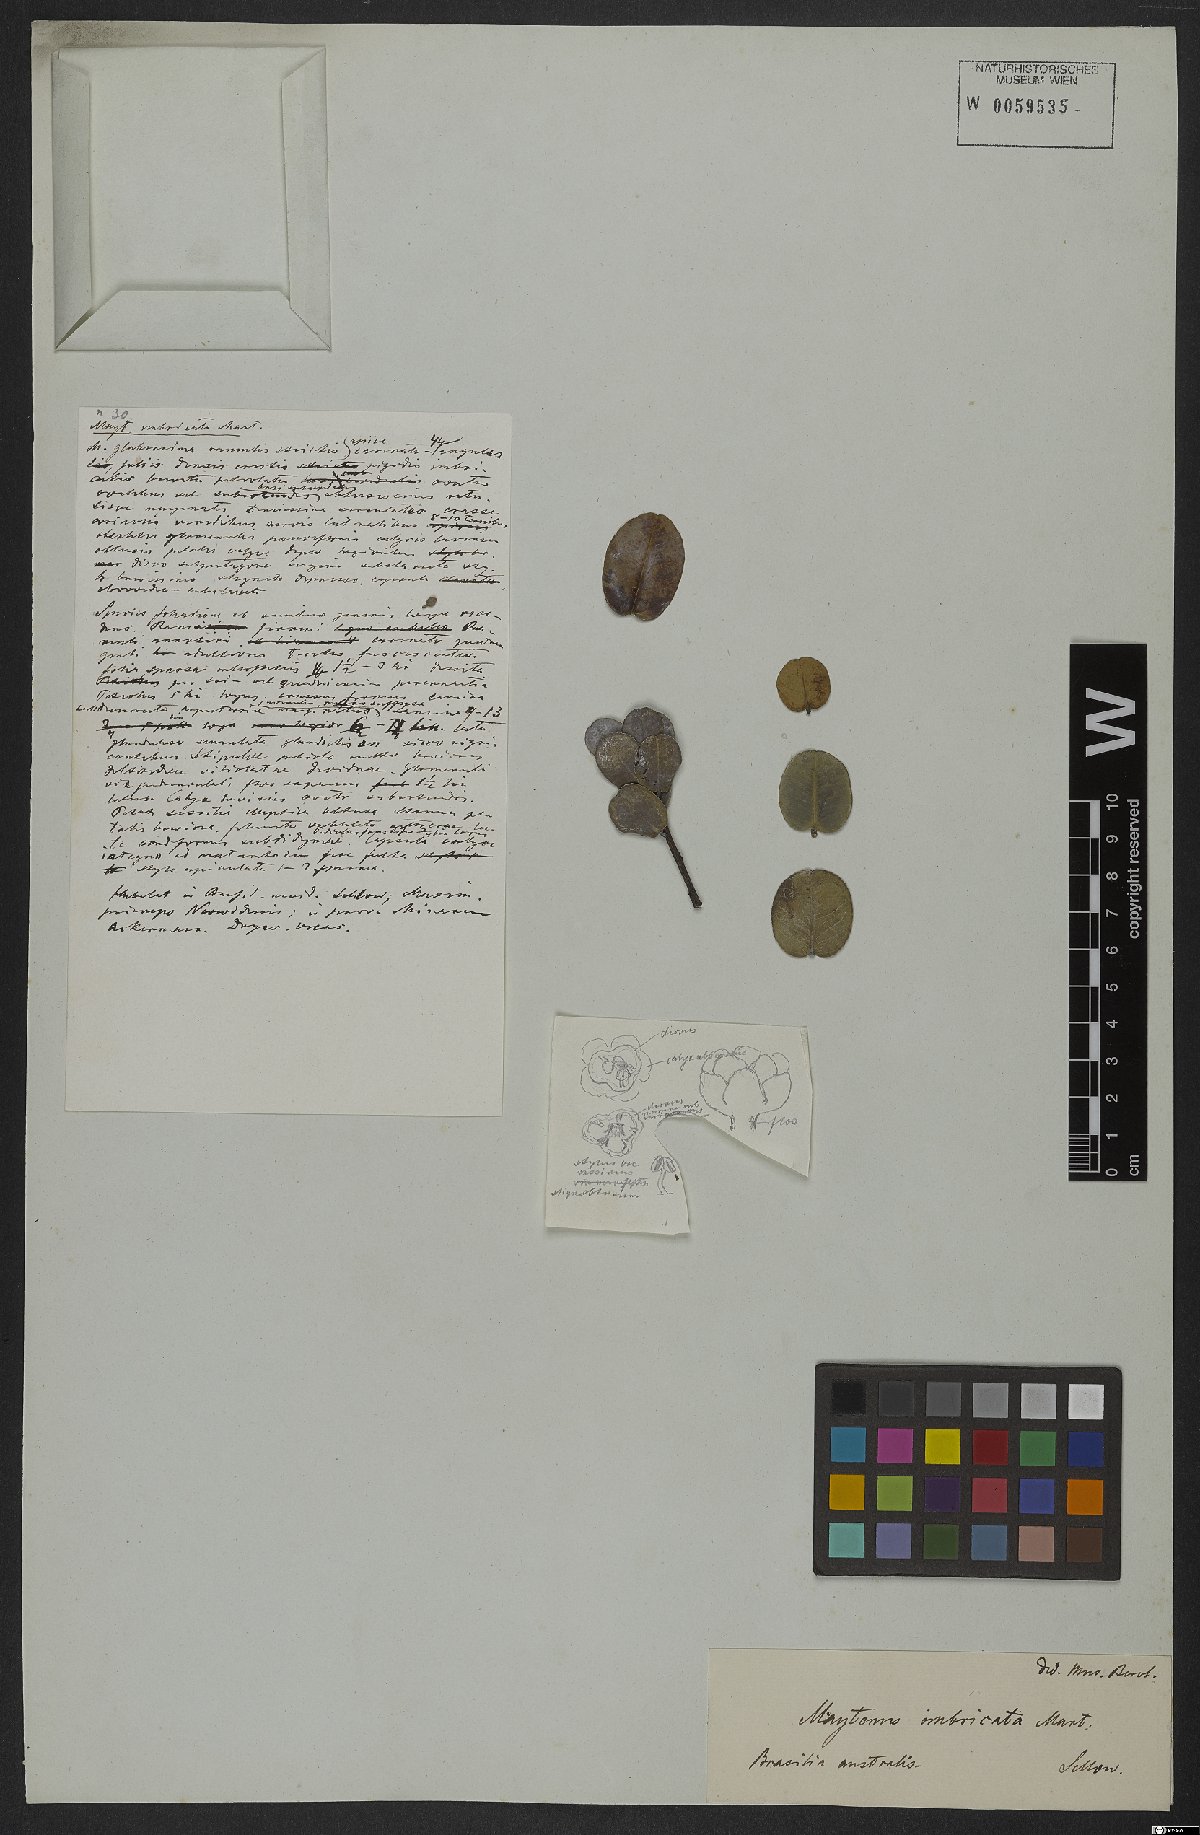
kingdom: Plantae
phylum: Tracheophyta
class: Magnoliopsida
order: Celastrales
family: Celastraceae
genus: Monteverdia
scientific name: Monteverdia imbricata
